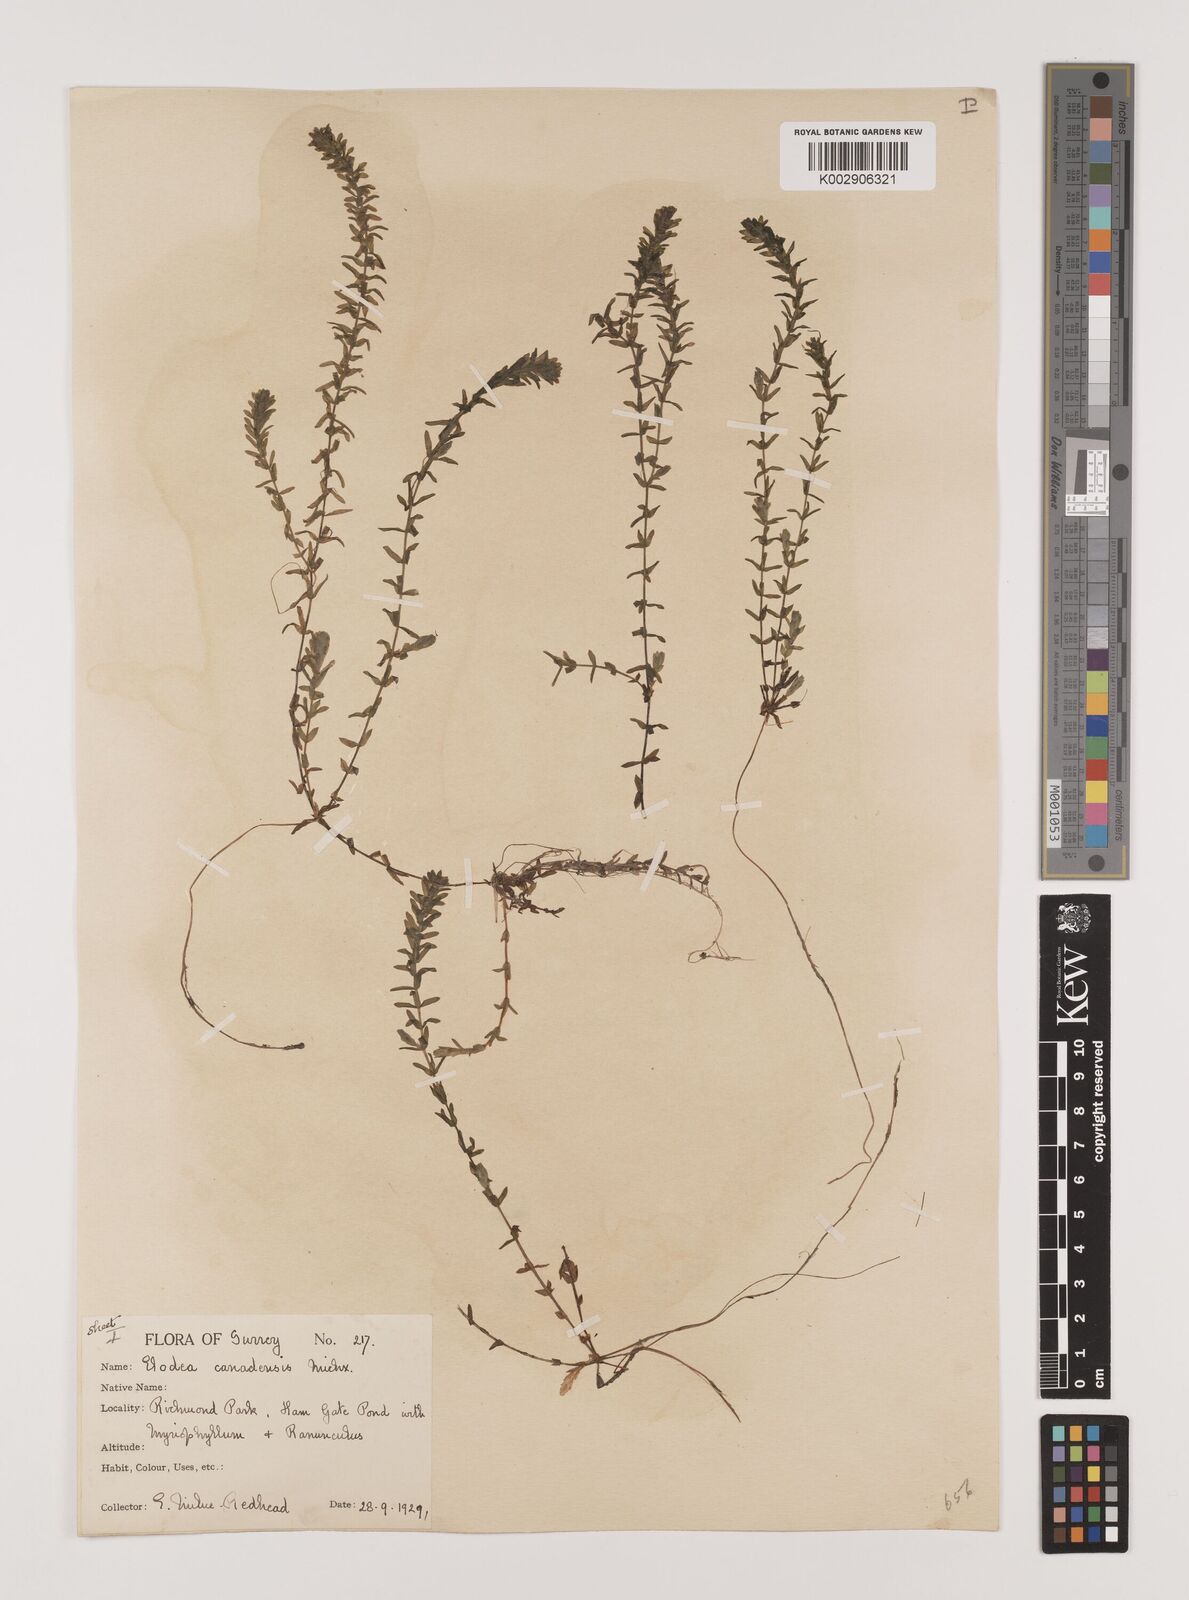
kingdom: Plantae
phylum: Tracheophyta
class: Liliopsida
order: Alismatales
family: Hydrocharitaceae
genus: Elodea
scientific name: Elodea canadensis
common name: Canadian waterweed
